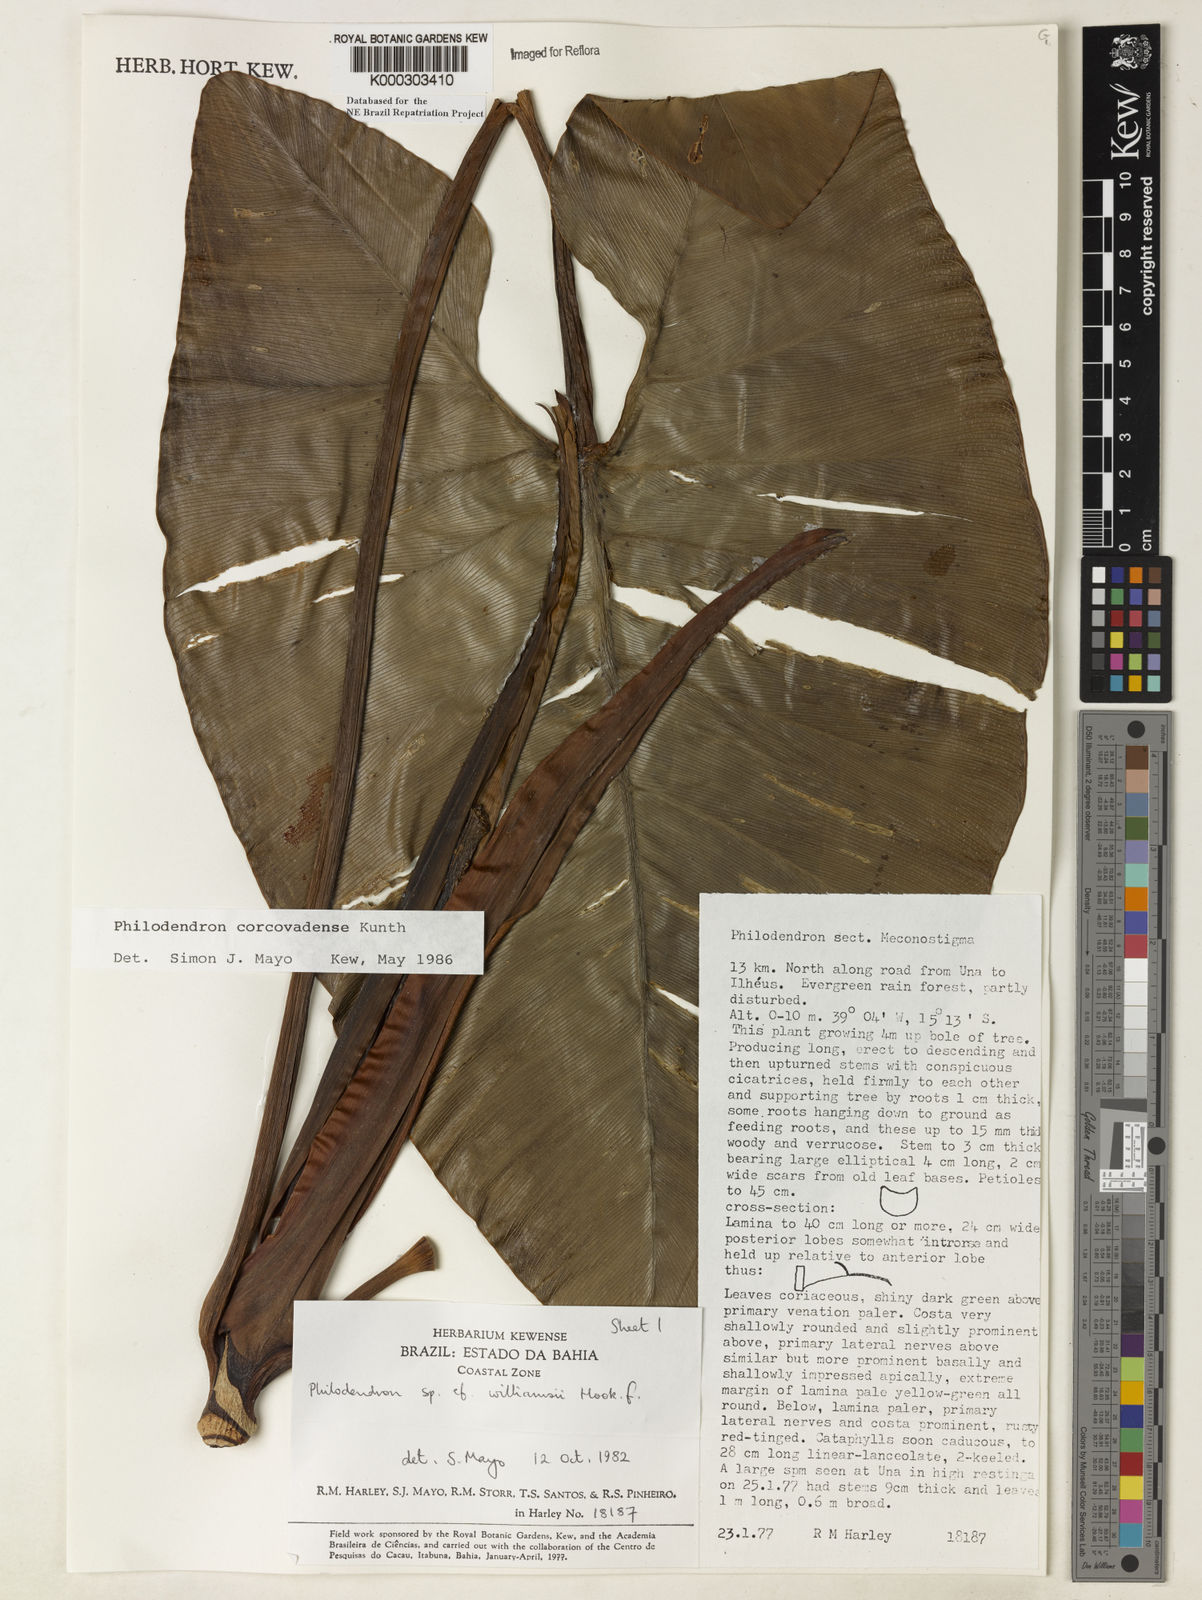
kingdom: Plantae
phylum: Tracheophyta
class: Liliopsida
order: Alismatales
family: Araceae
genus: Thaumatophyllum
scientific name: Thaumatophyllum corcovadense
